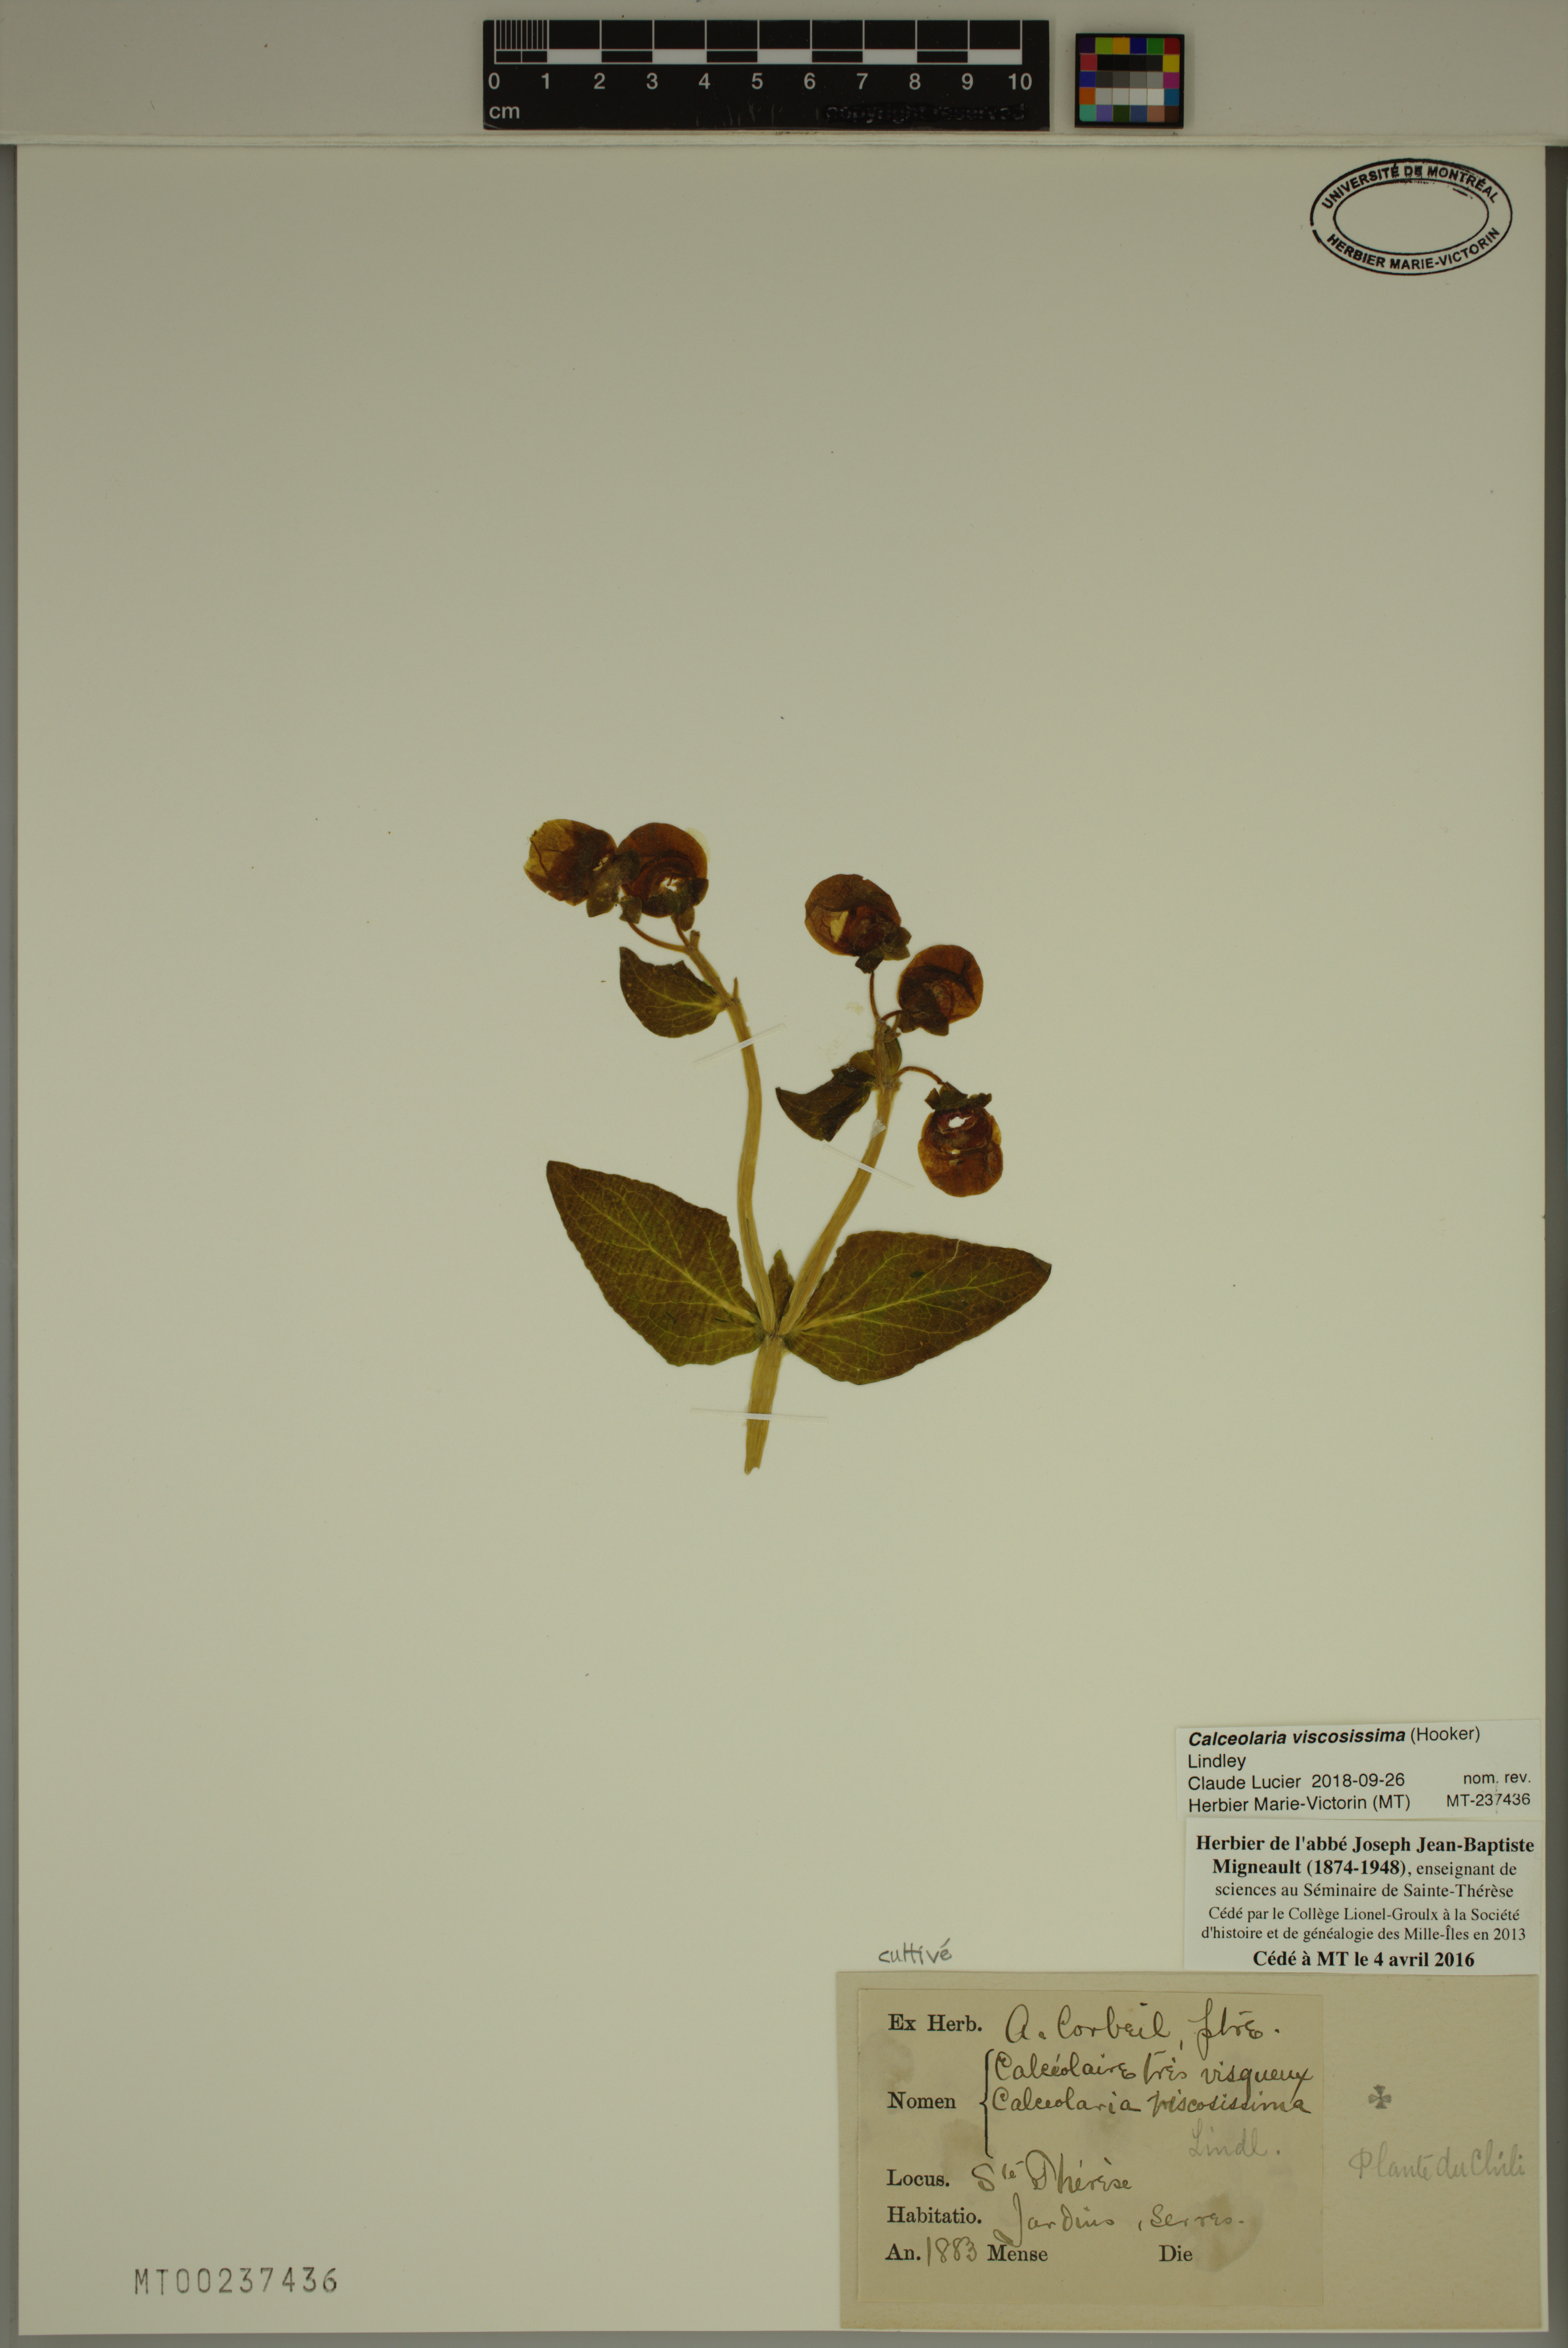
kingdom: Plantae
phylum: Tracheophyta
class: Magnoliopsida
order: Lamiales
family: Calceolariaceae
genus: Calceolaria
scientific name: Calceolaria viscosissima
